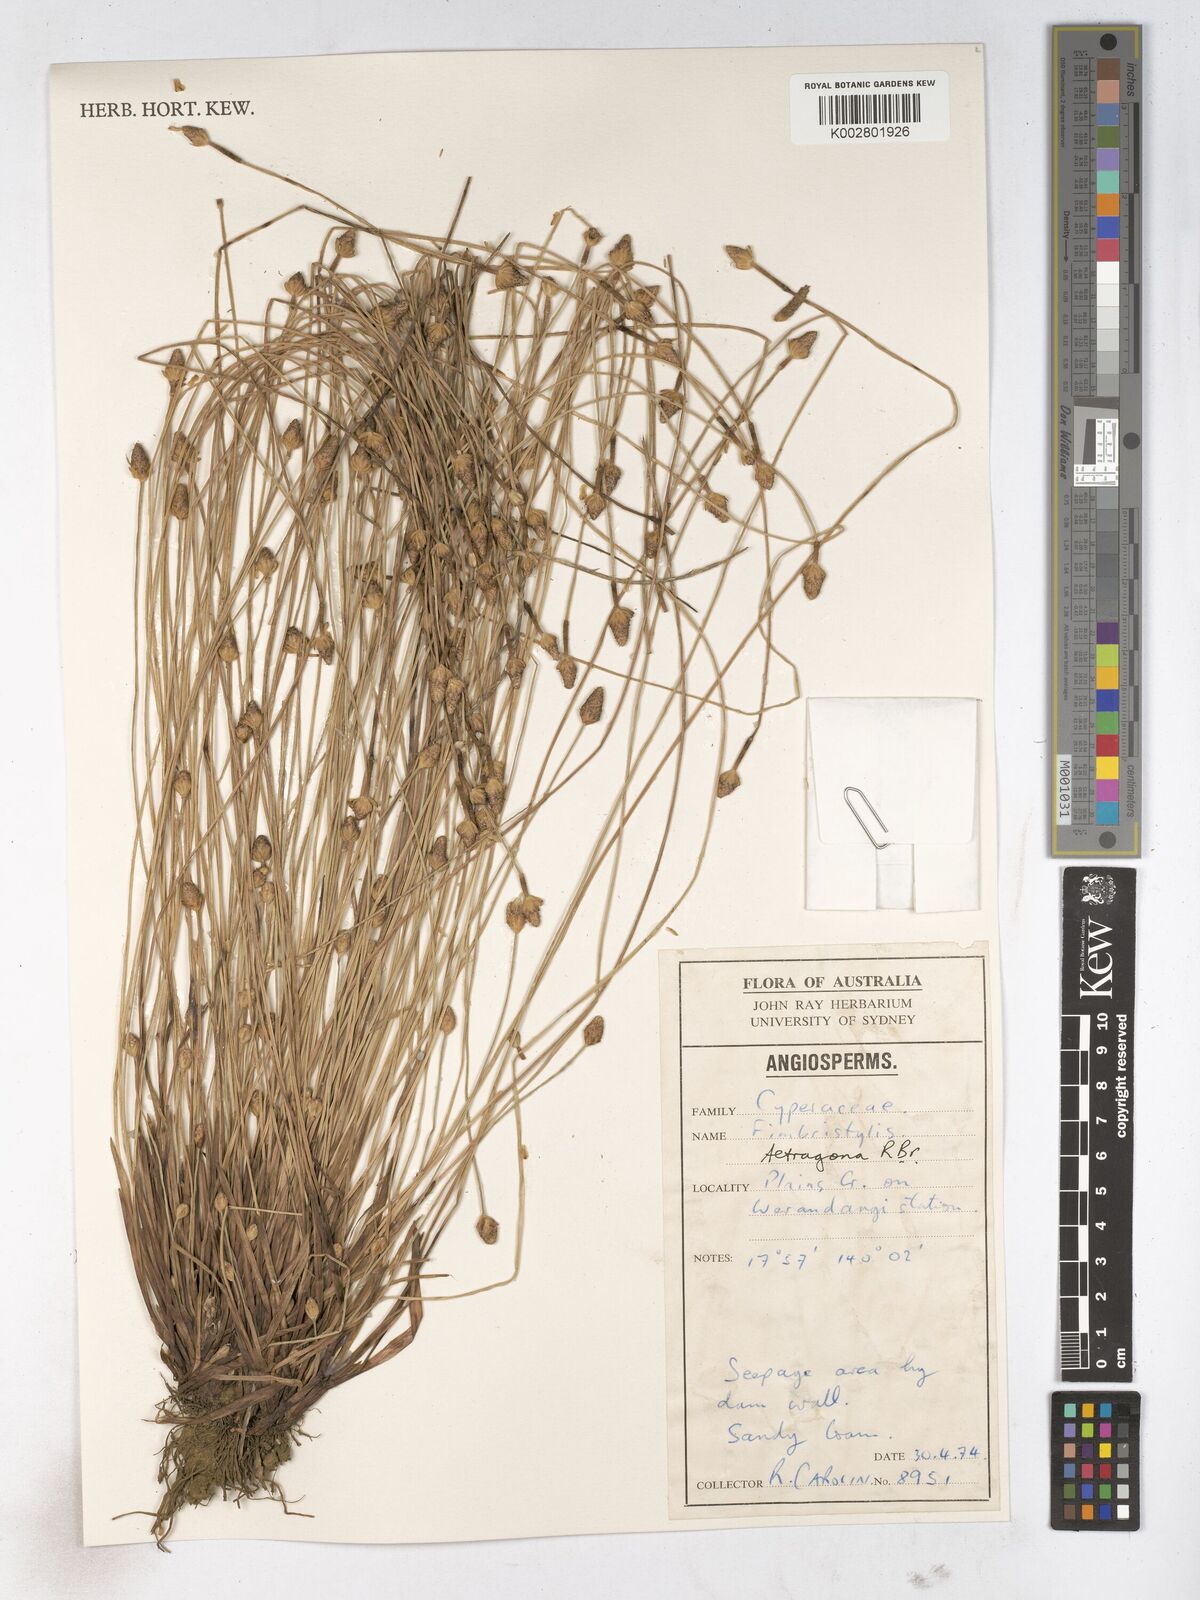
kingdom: Plantae
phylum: Tracheophyta
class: Liliopsida
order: Poales
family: Cyperaceae
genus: Fimbristylis
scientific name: Fimbristylis tetragona
